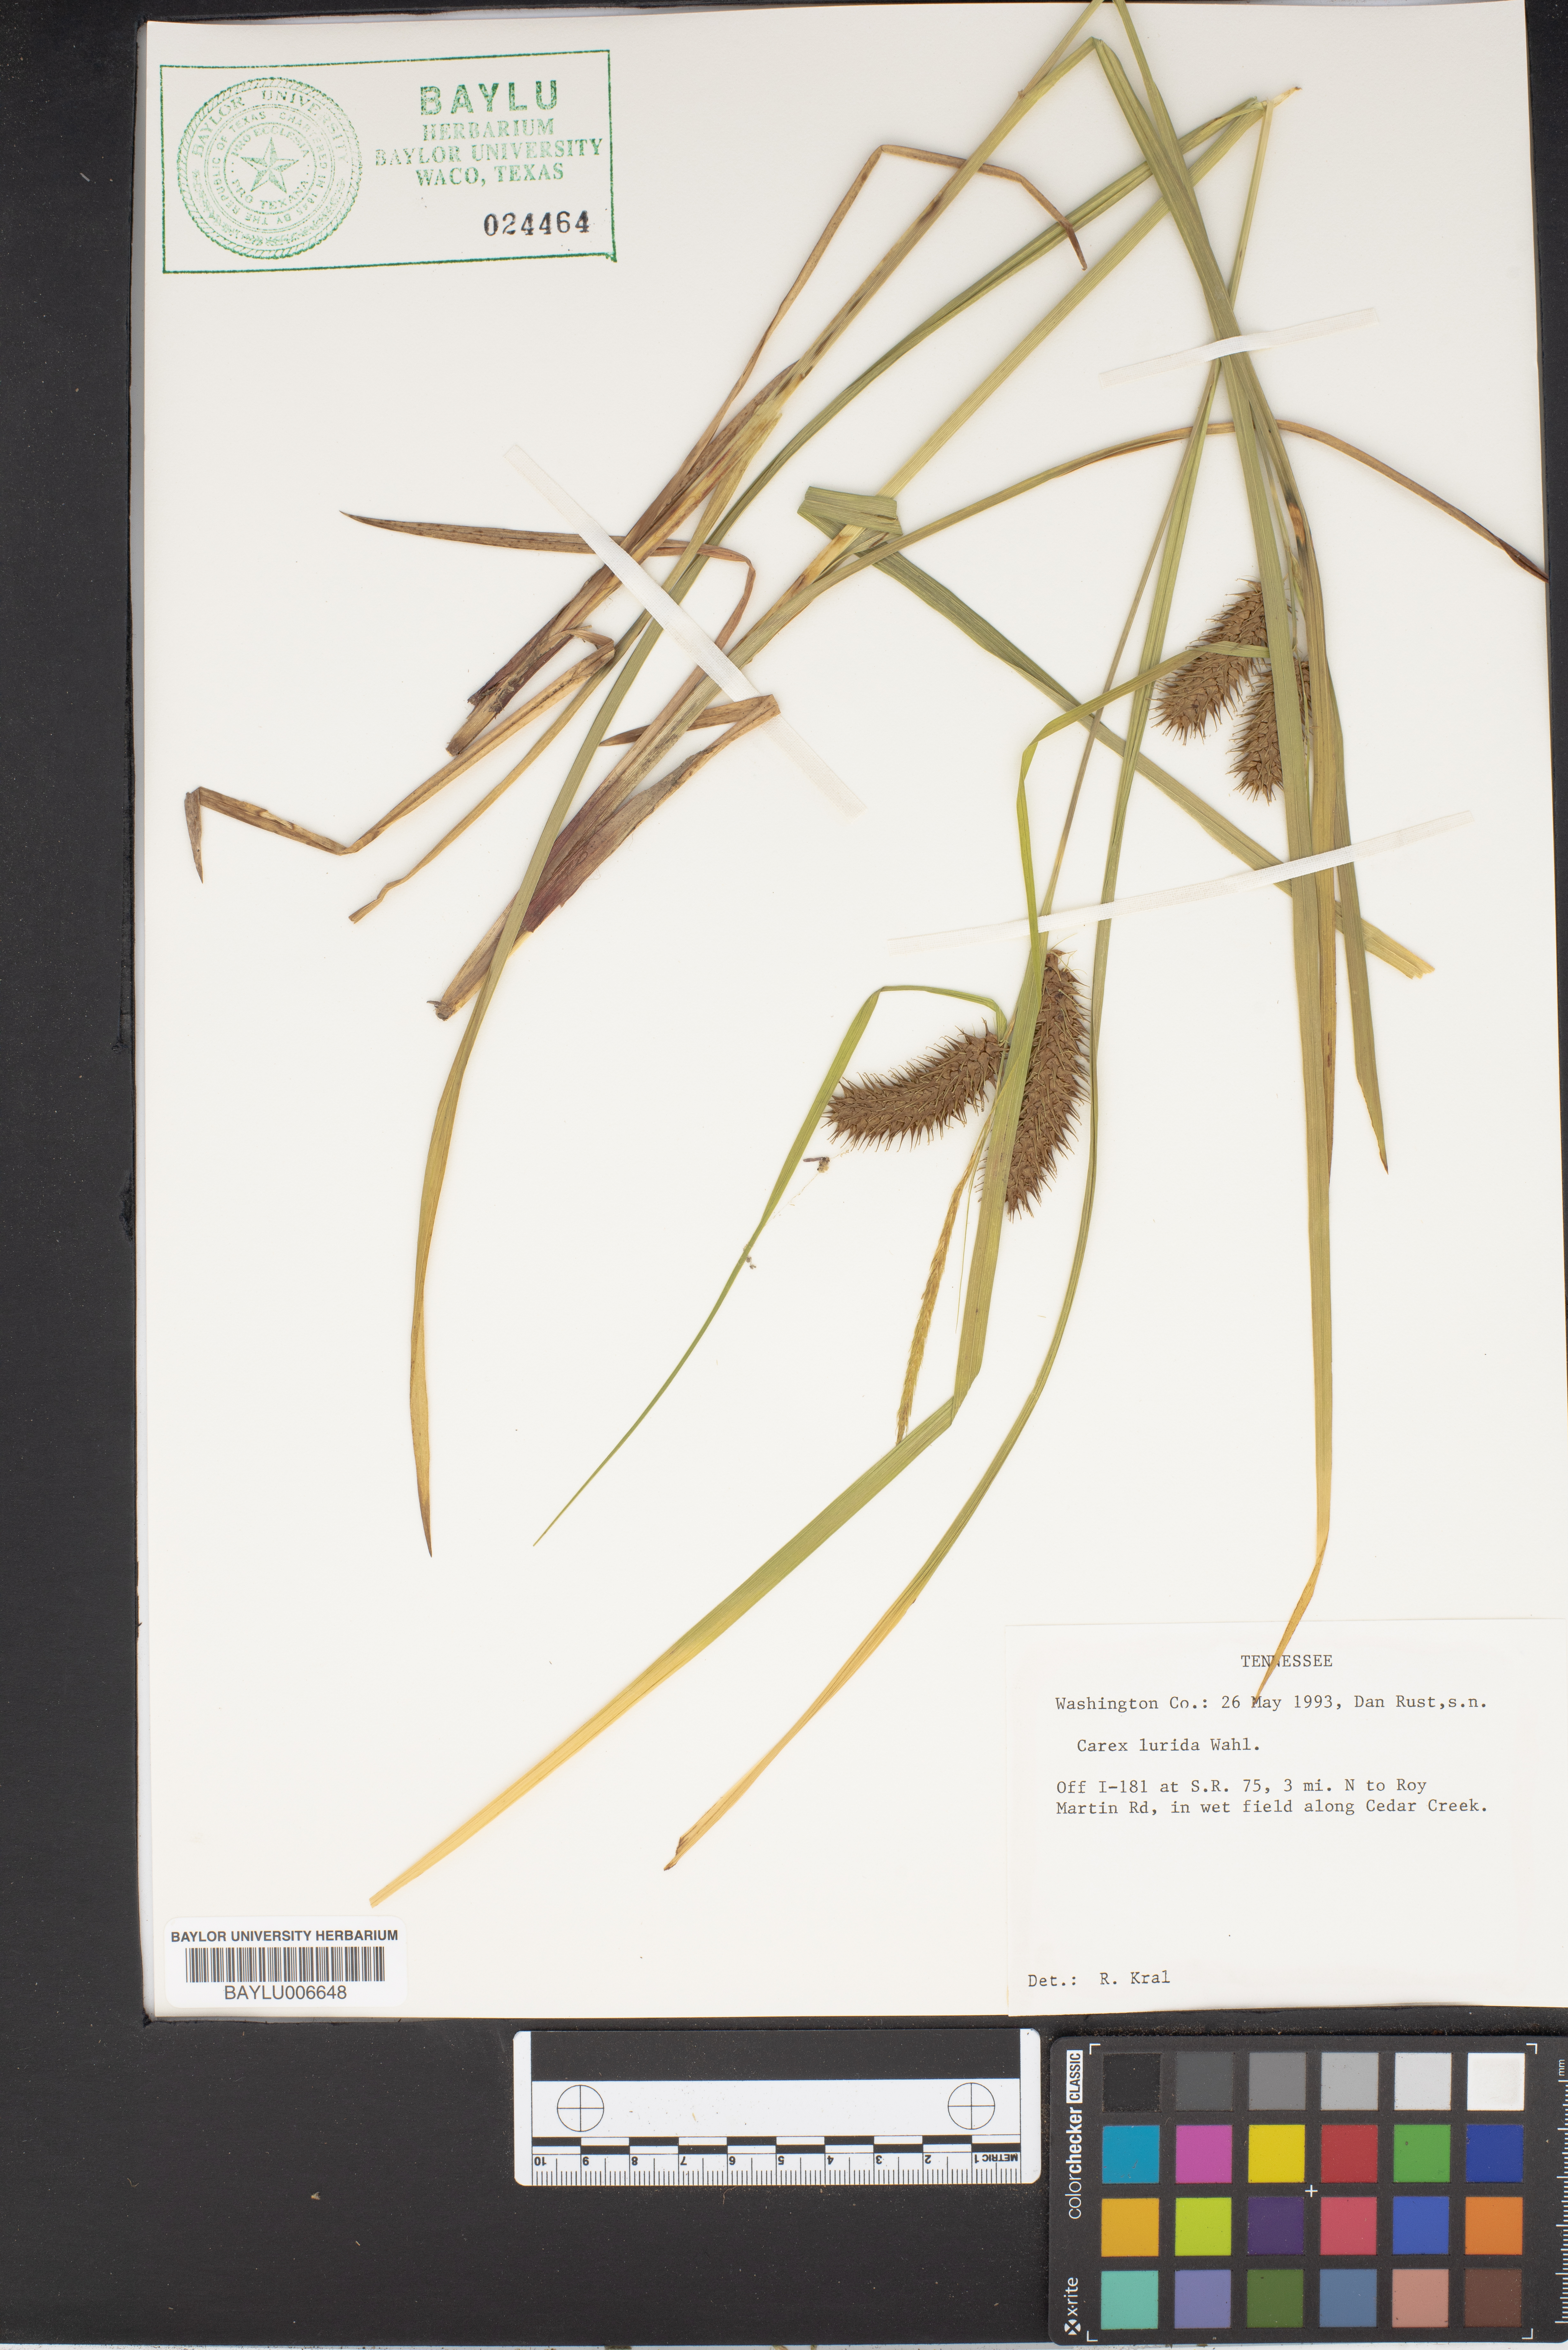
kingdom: Plantae
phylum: Tracheophyta
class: Liliopsida
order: Poales
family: Cyperaceae
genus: Carex
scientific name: Carex lurida
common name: Sallow sedge
